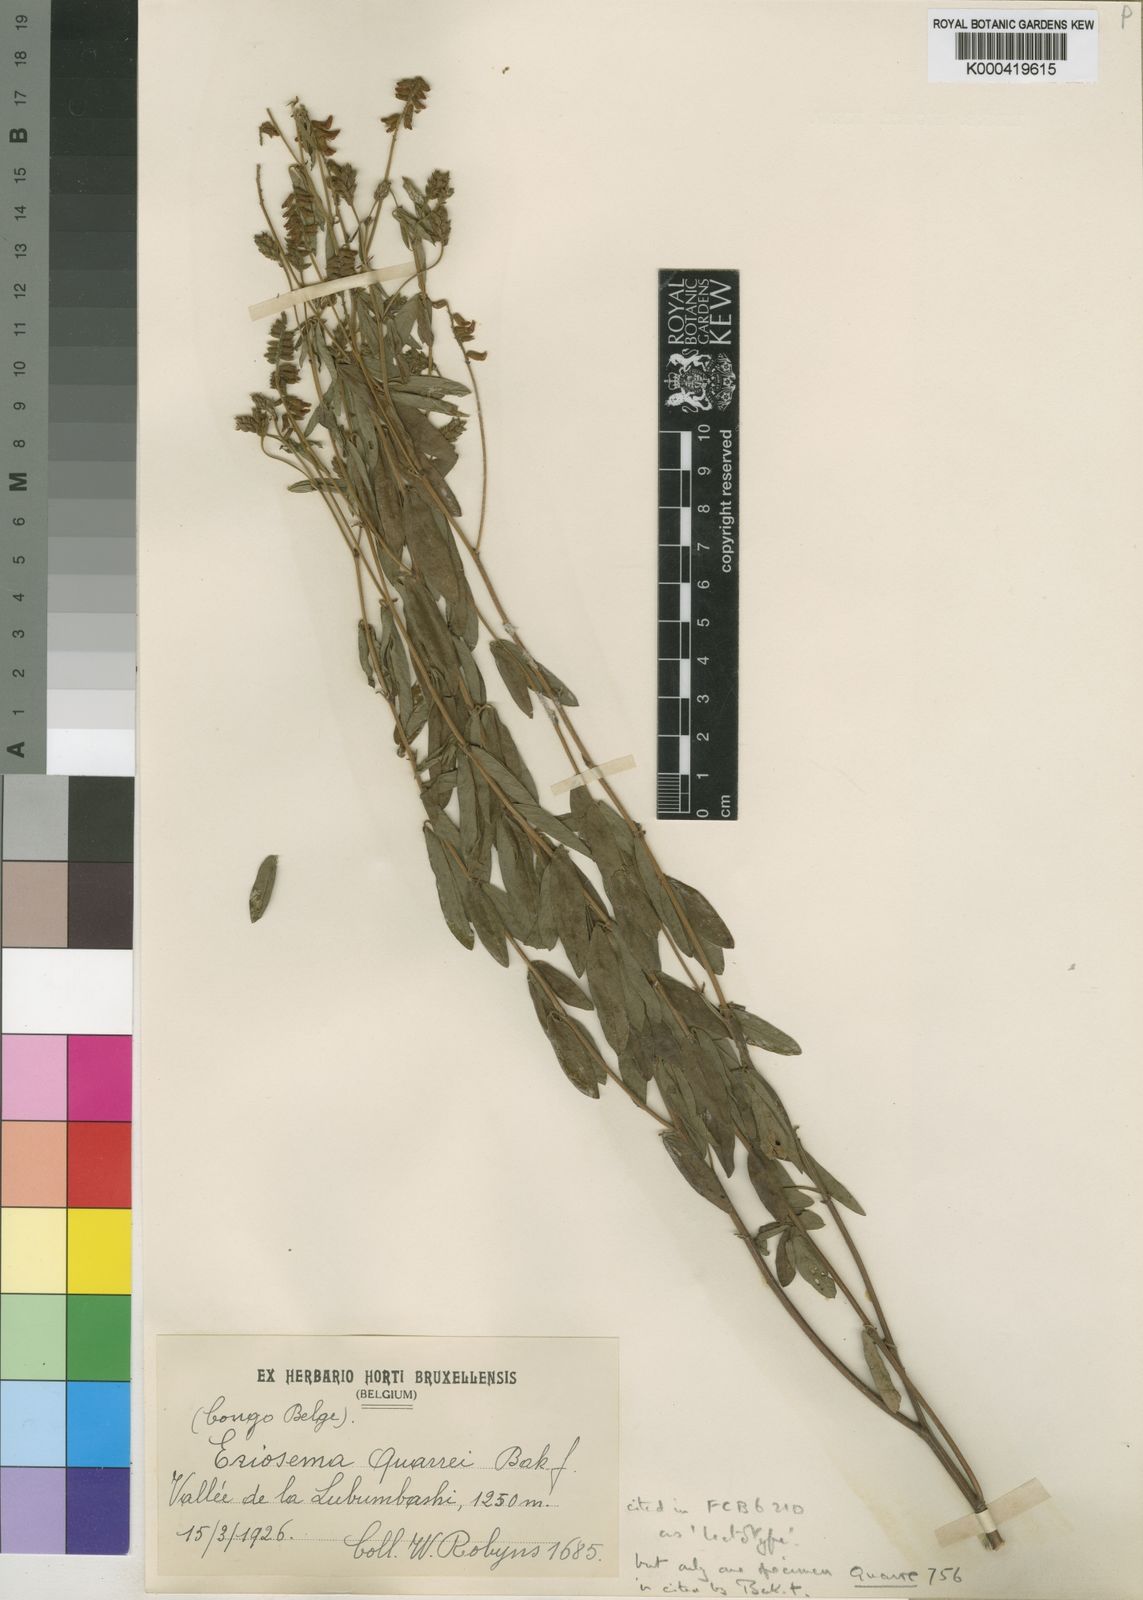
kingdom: Plantae
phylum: Tracheophyta
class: Magnoliopsida
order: Fabales
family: Fabaceae
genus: Eriosema
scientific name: Eriosema ramosum
